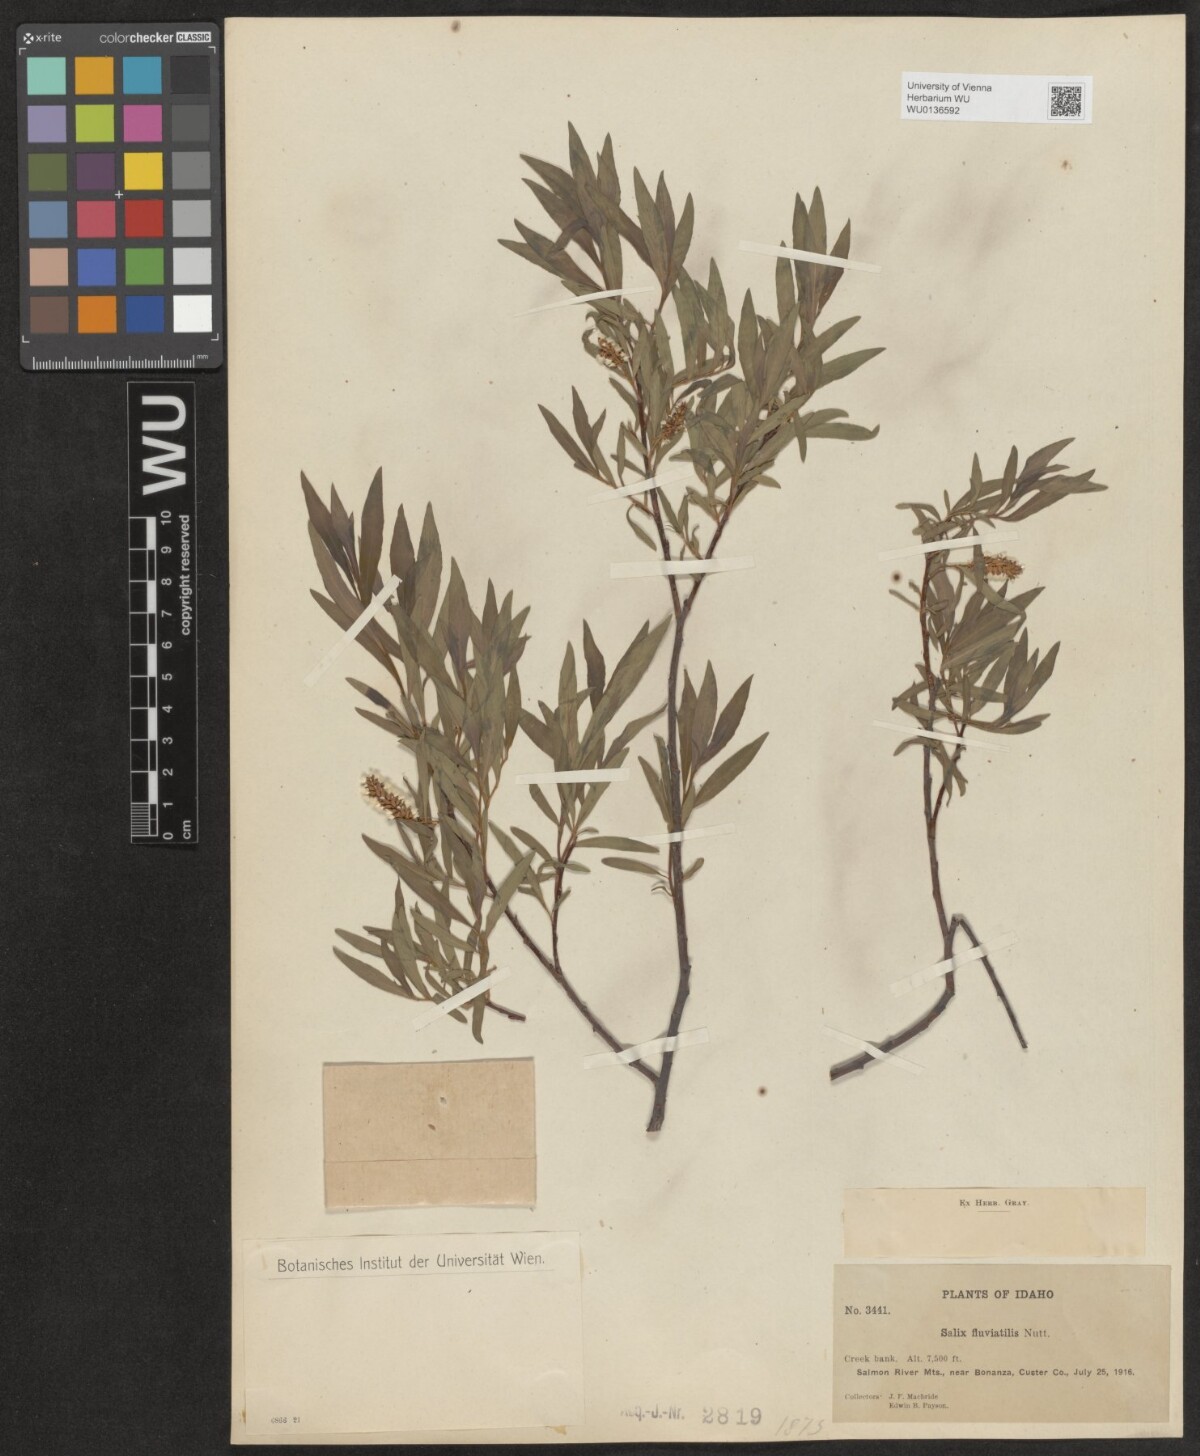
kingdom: Plantae
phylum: Tracheophyta
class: Magnoliopsida
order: Malpighiales
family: Salicaceae
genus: Salix
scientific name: Salix melanopsis
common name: Dusky willow
